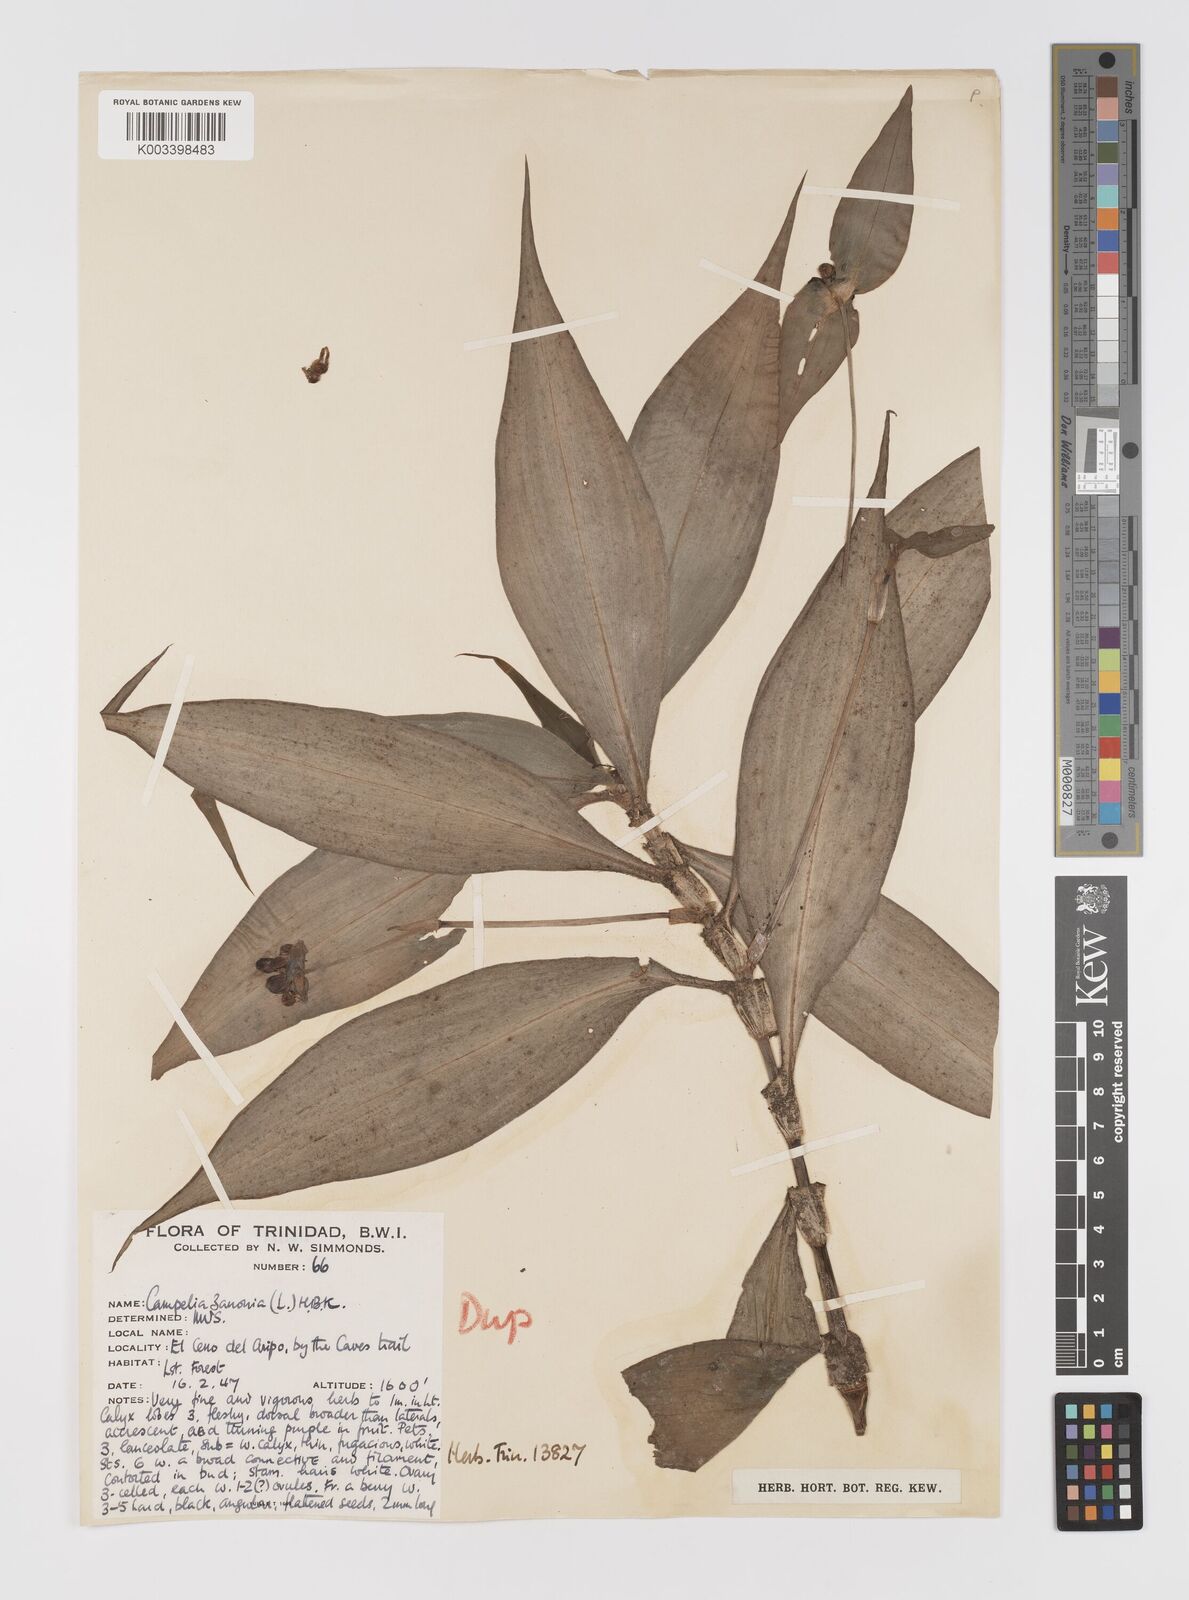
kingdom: Plantae
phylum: Tracheophyta
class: Liliopsida
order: Commelinales
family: Commelinaceae
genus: Tradescantia
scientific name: Tradescantia zanonia
